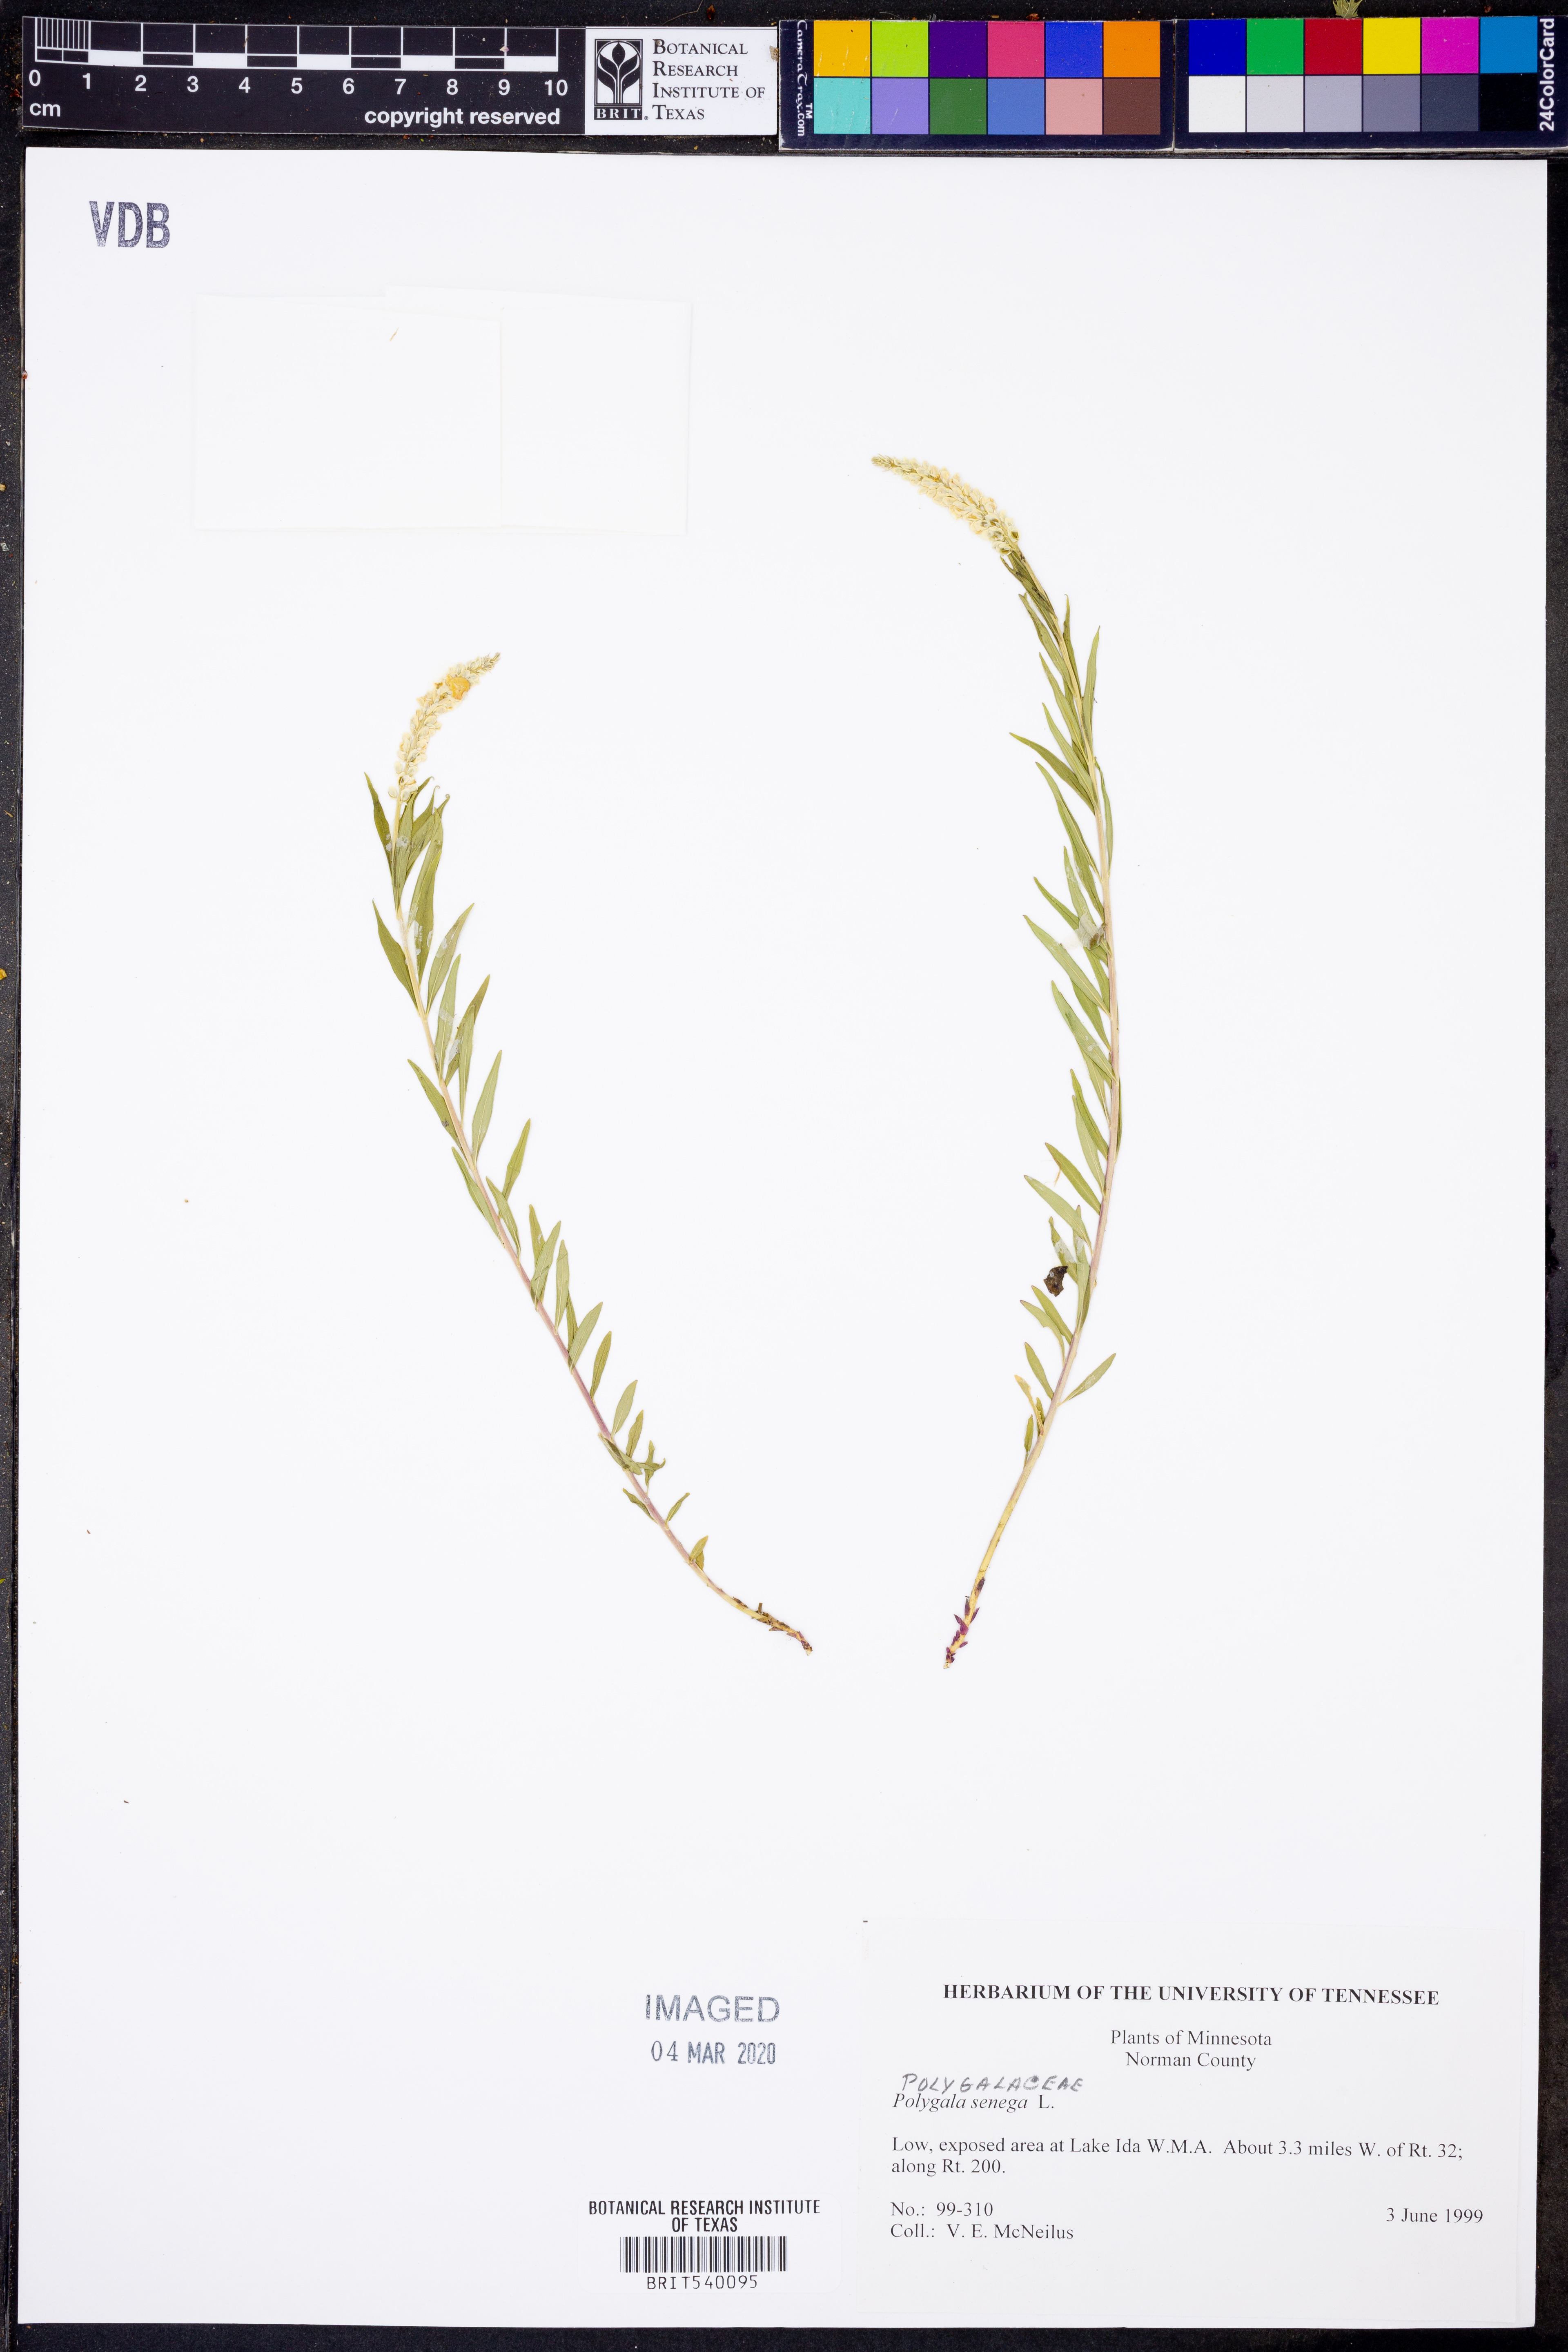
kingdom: Plantae
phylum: Tracheophyta
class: Magnoliopsida
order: Fabales
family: Polygalaceae
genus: Polygala
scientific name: Polygala senega
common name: Seneca snakeroot
